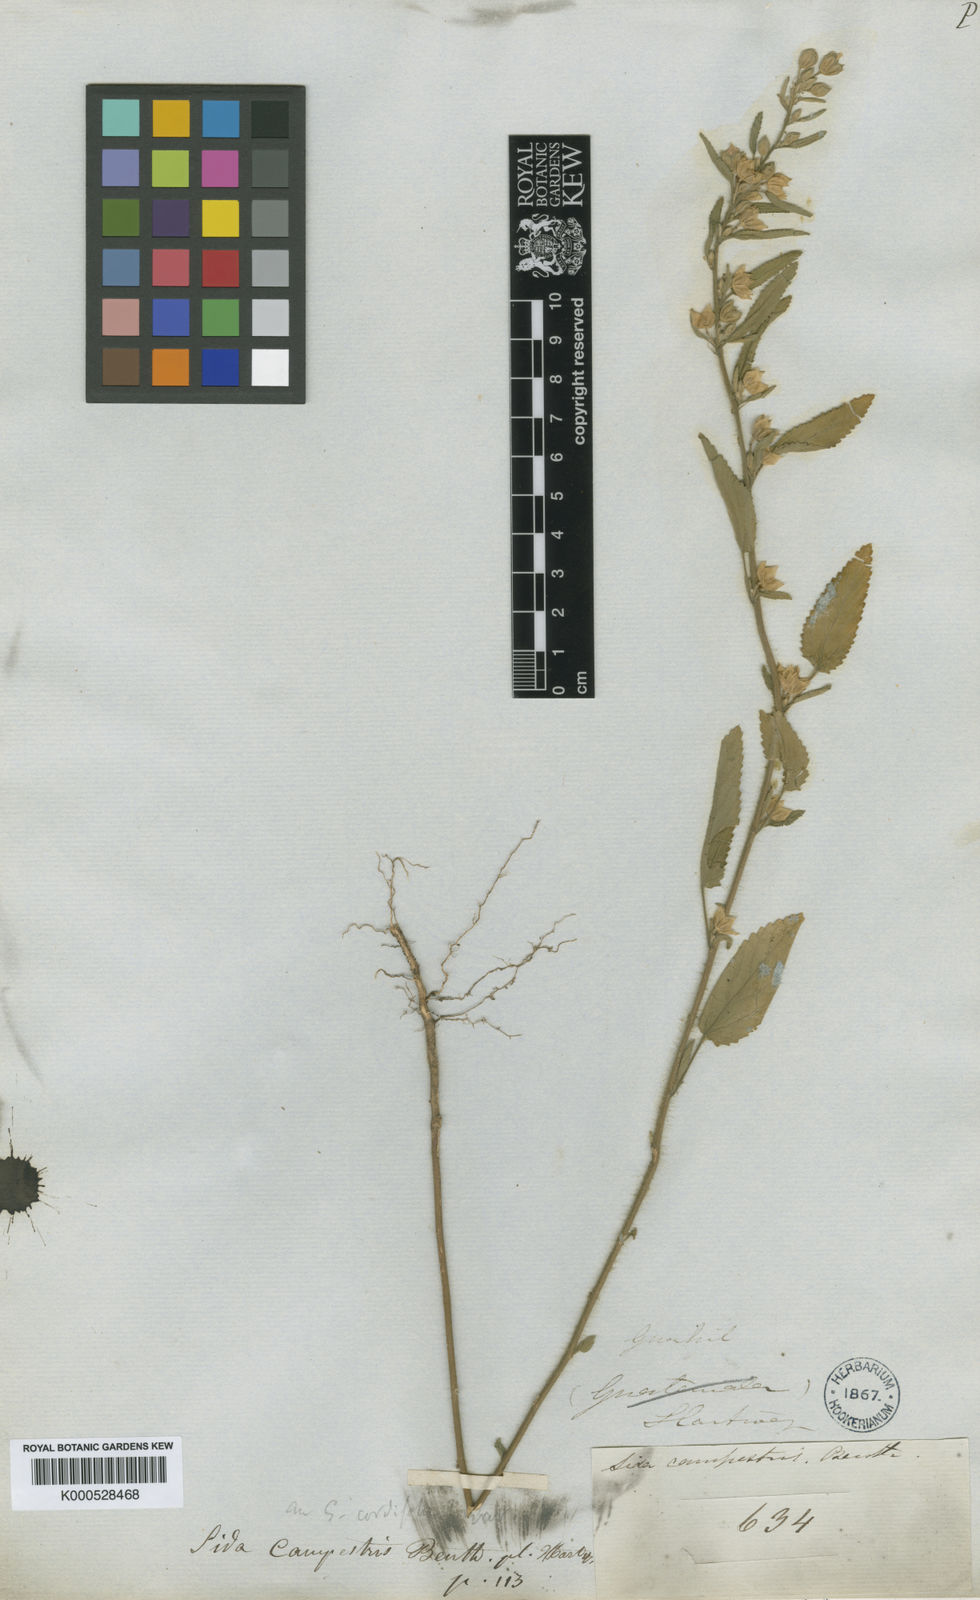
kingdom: Plantae
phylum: Tracheophyta
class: Magnoliopsida
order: Malvales
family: Malvaceae
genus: Sida
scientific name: Sida salviifolia
